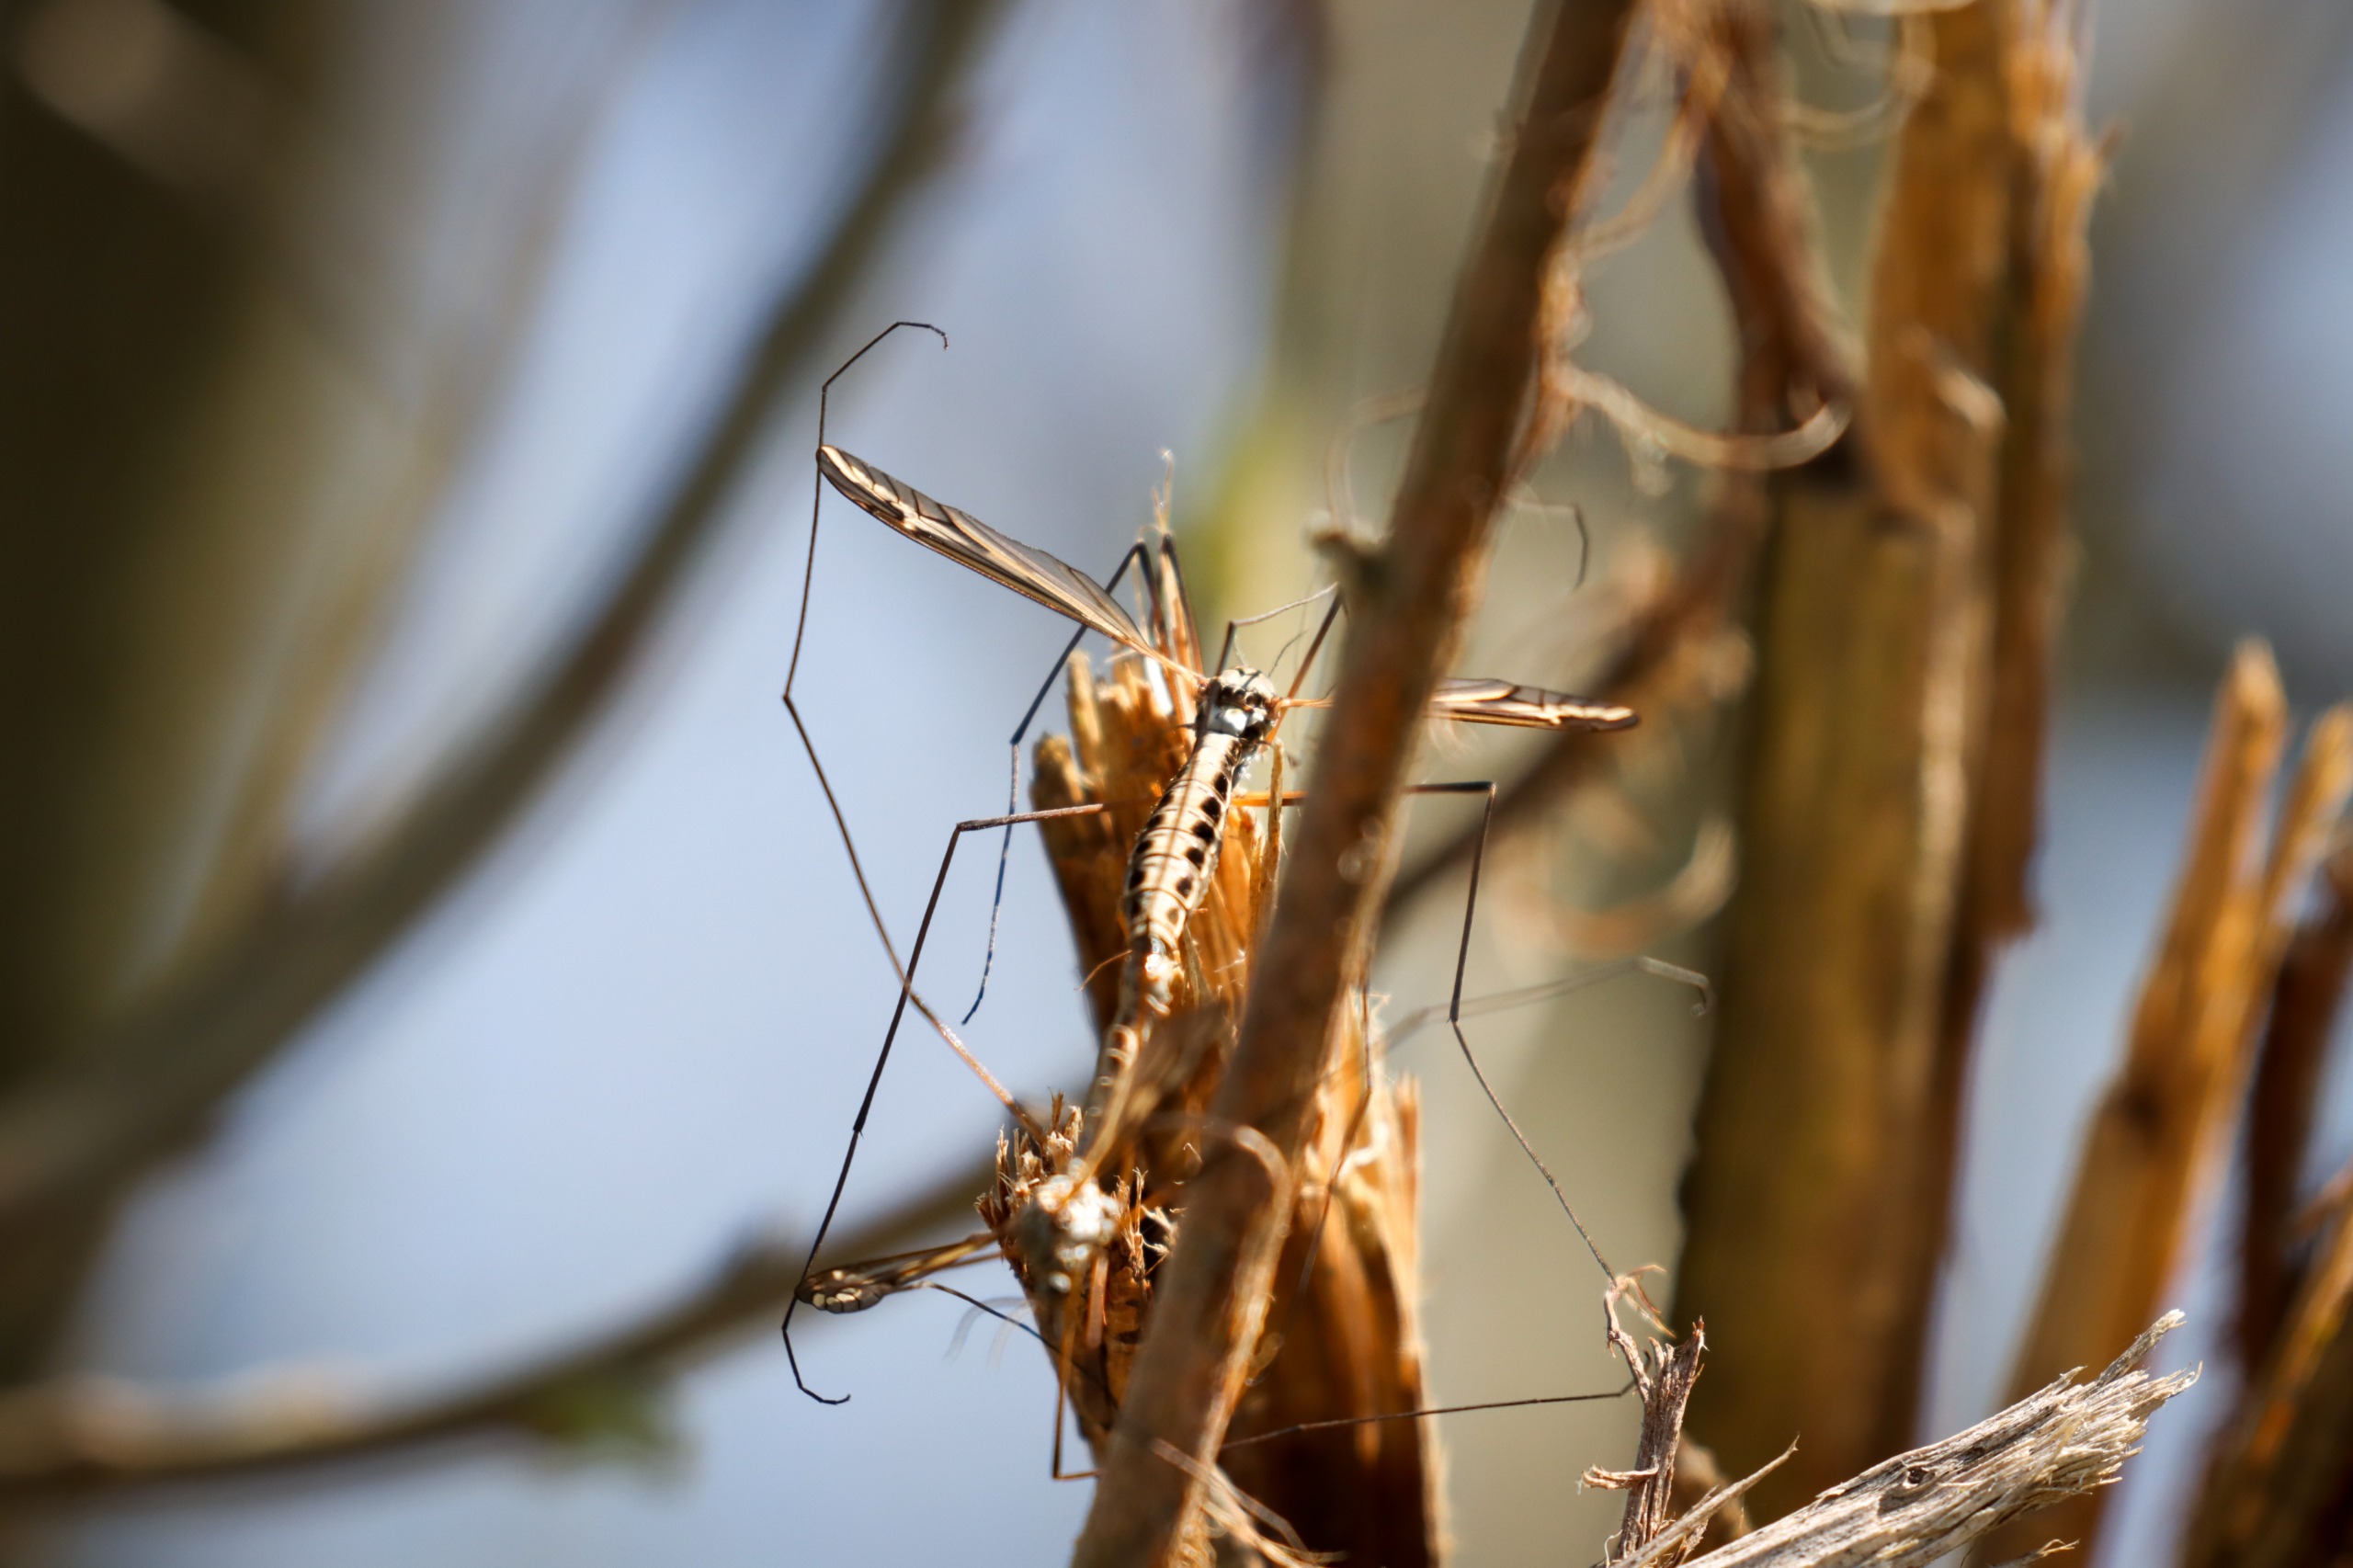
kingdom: Animalia
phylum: Arthropoda
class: Insecta
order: Diptera
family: Tipulidae
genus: Tipula
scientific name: Tipula vittata
